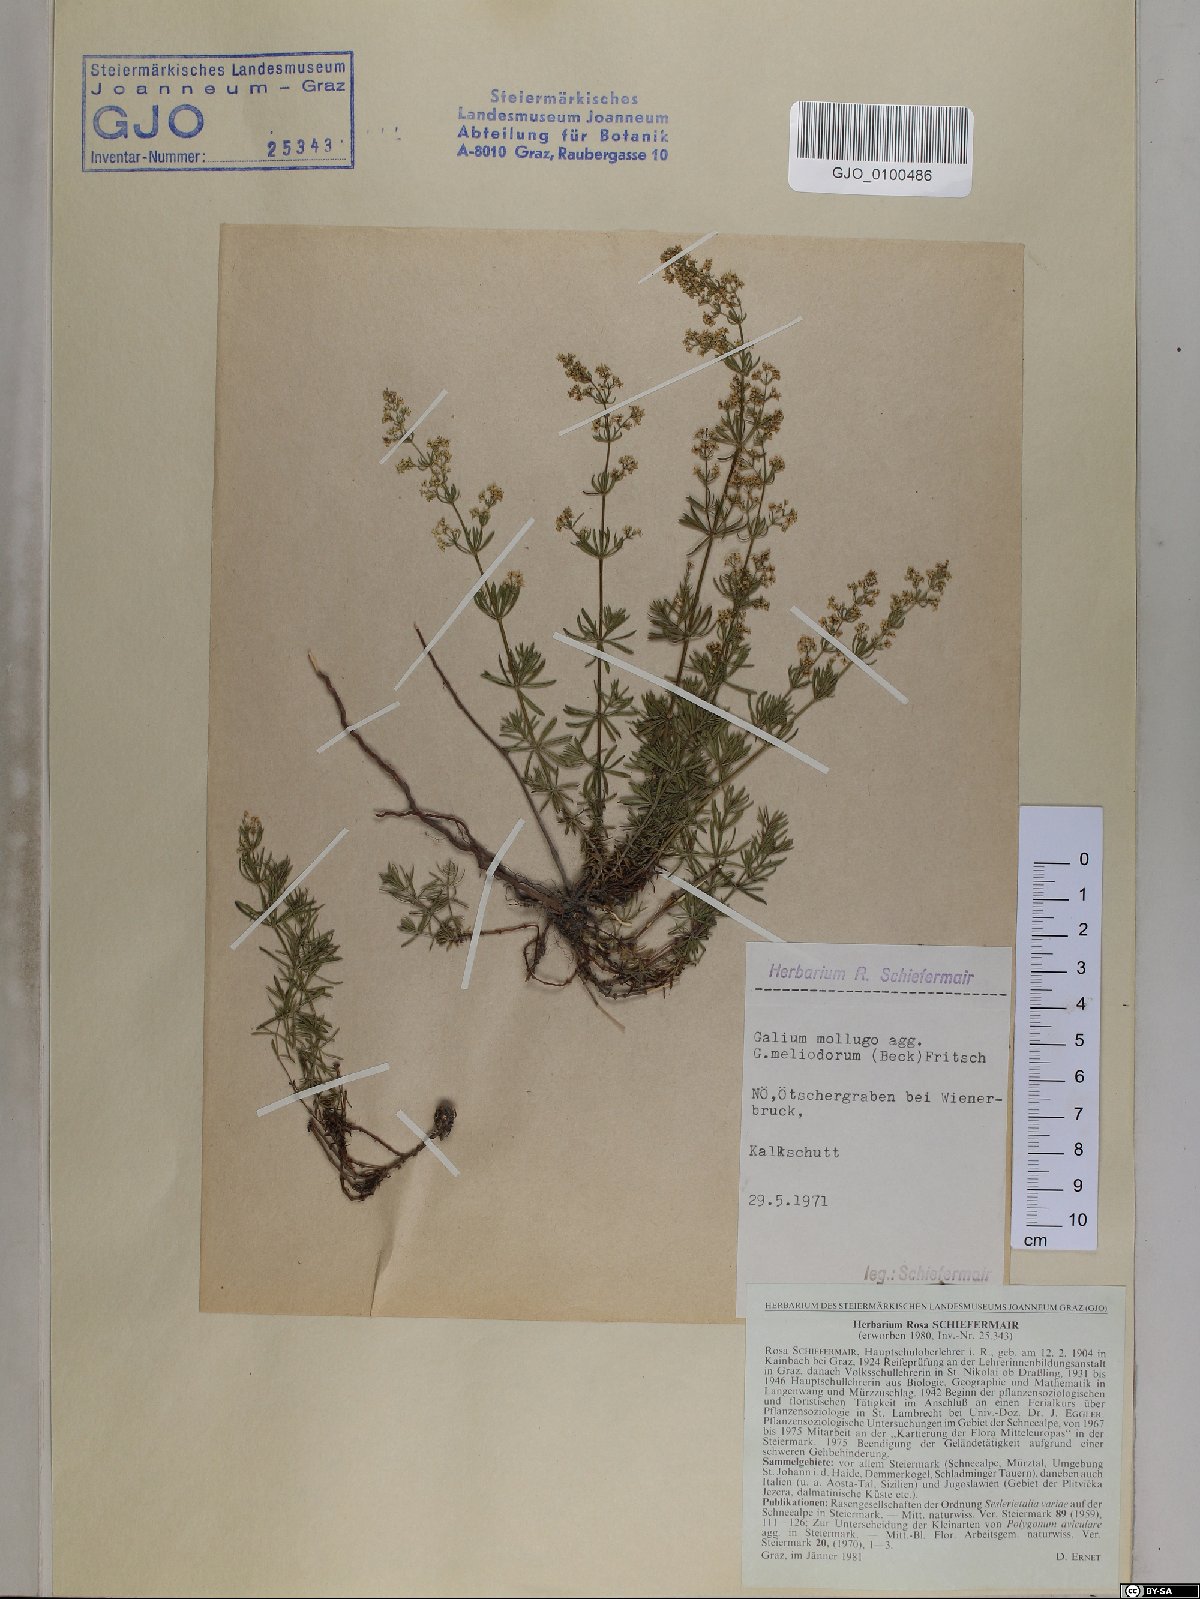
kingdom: Plantae
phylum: Tracheophyta
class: Magnoliopsida
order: Gentianales
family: Rubiaceae
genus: Galium
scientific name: Galium meliodorum
